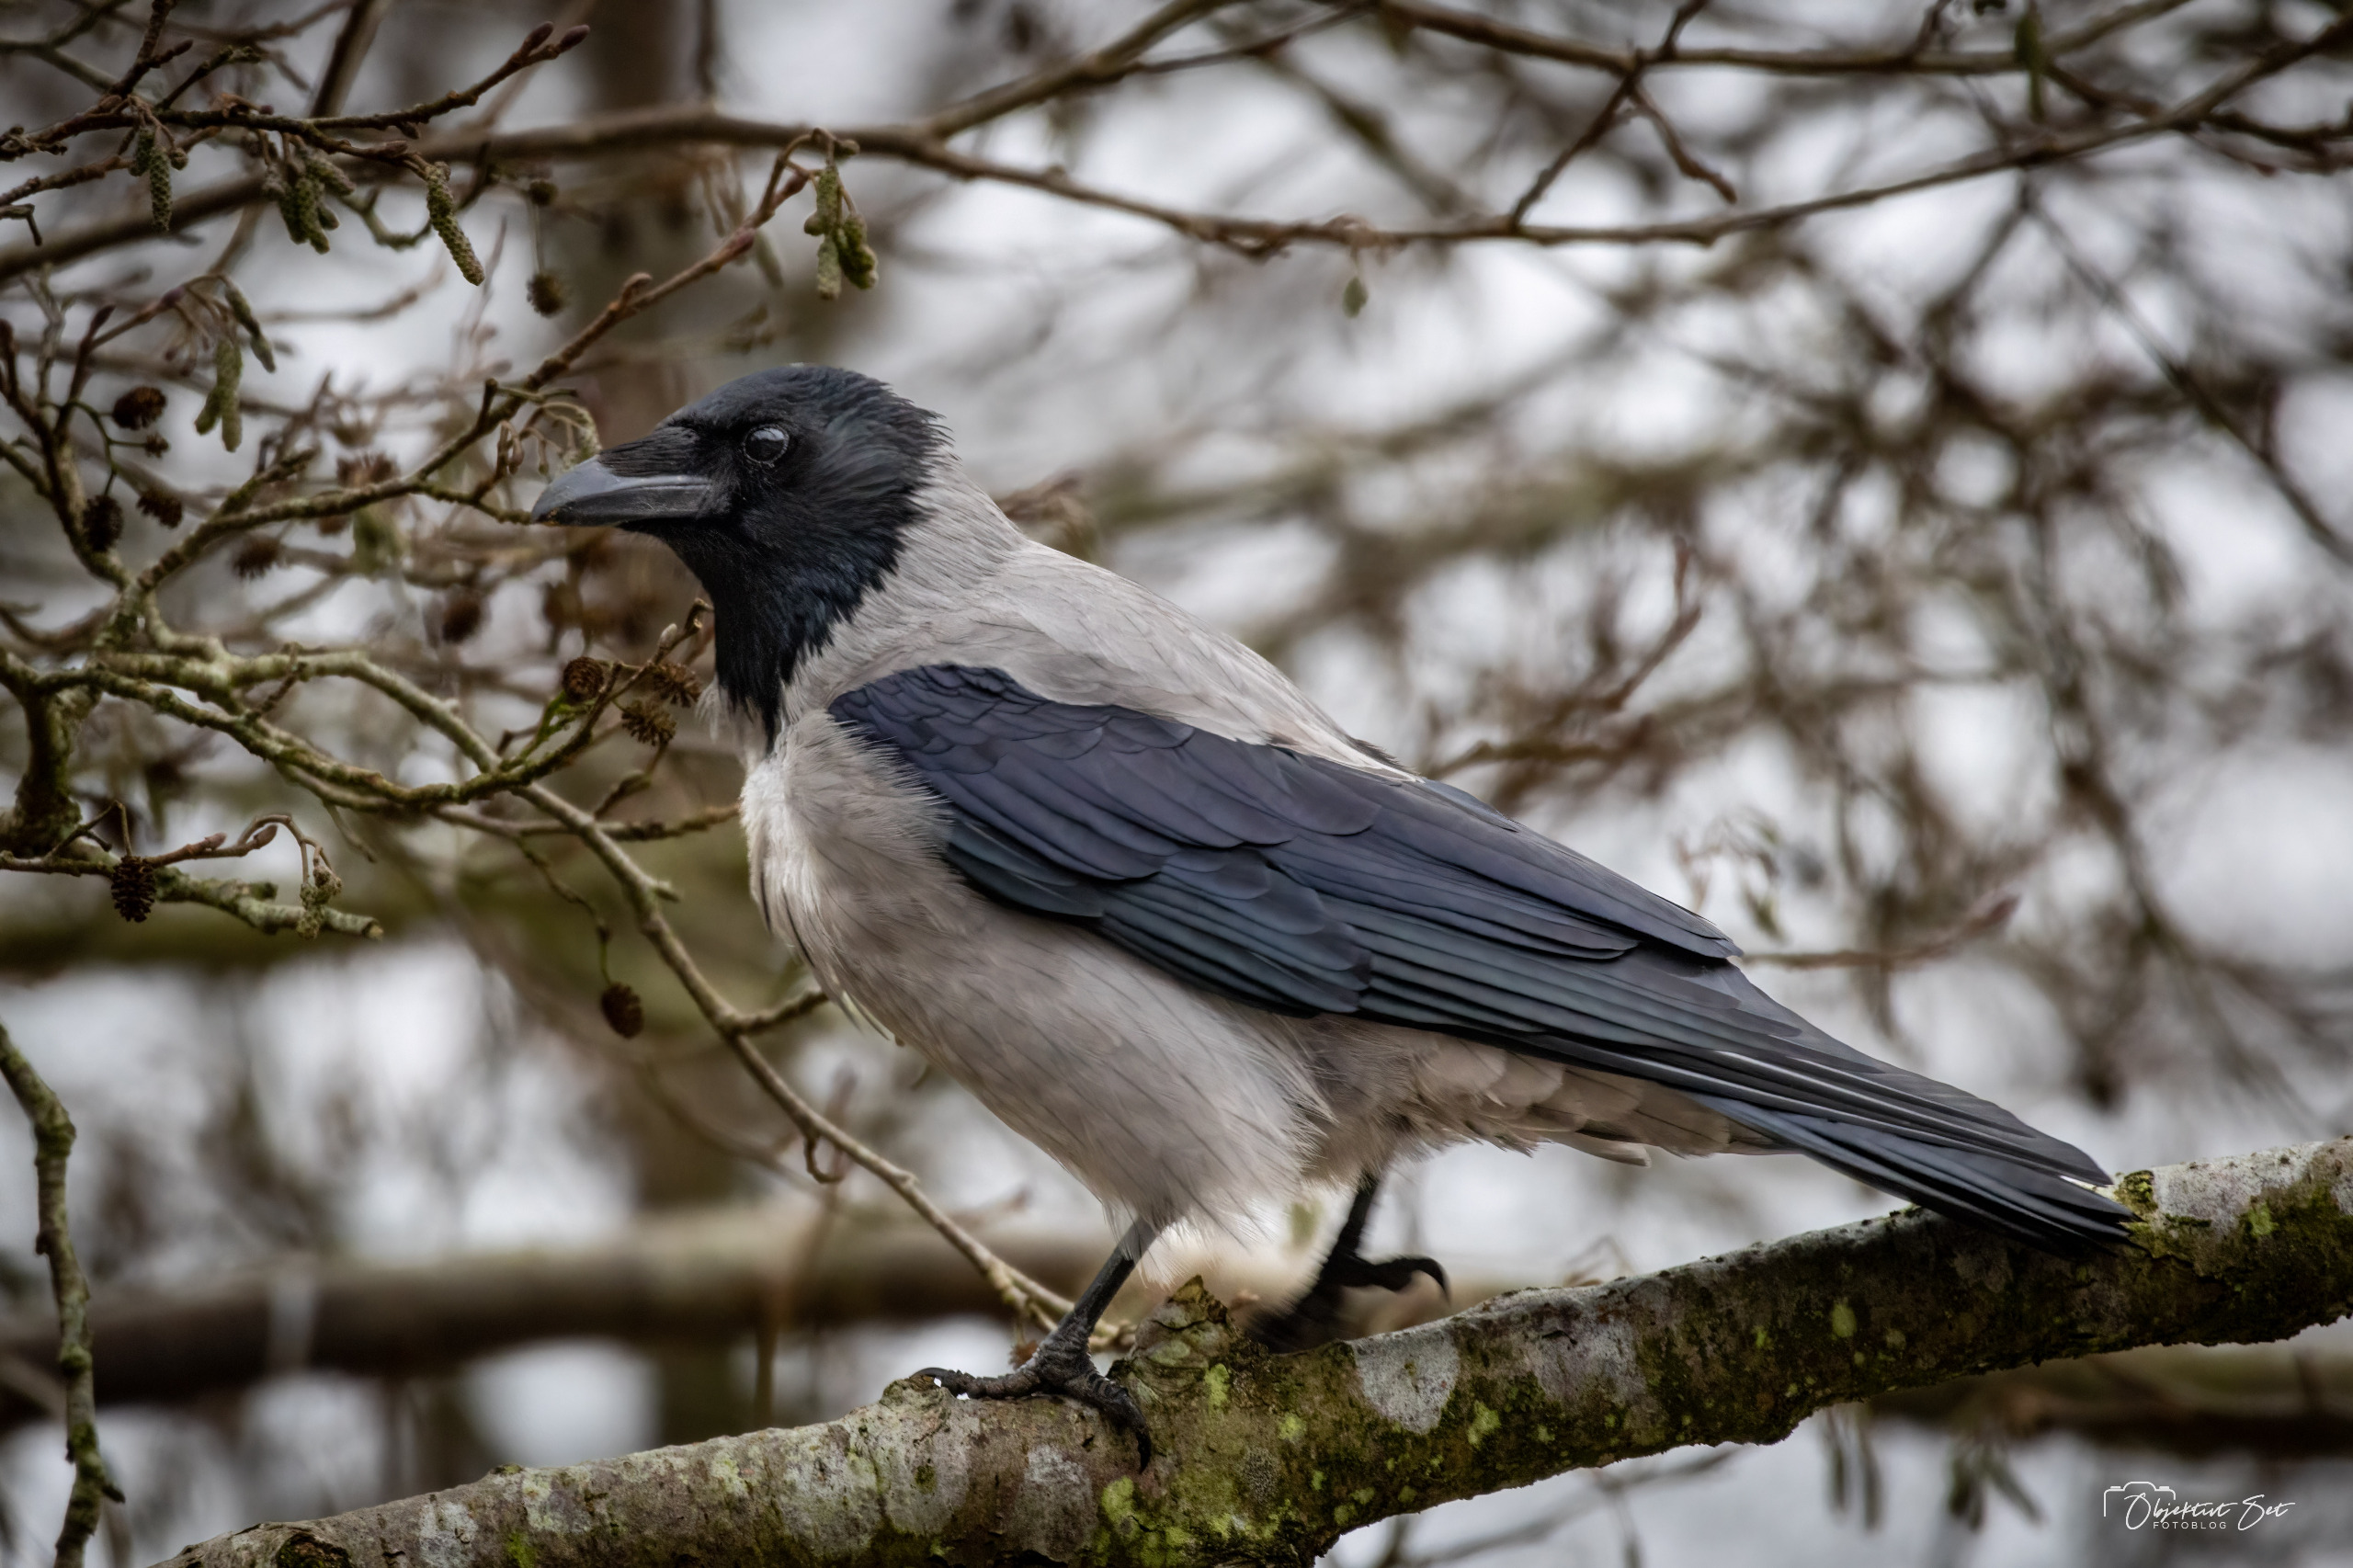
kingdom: Animalia
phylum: Chordata
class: Aves
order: Passeriformes
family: Corvidae
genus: Corvus
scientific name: Corvus cornix
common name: Gråkrage
